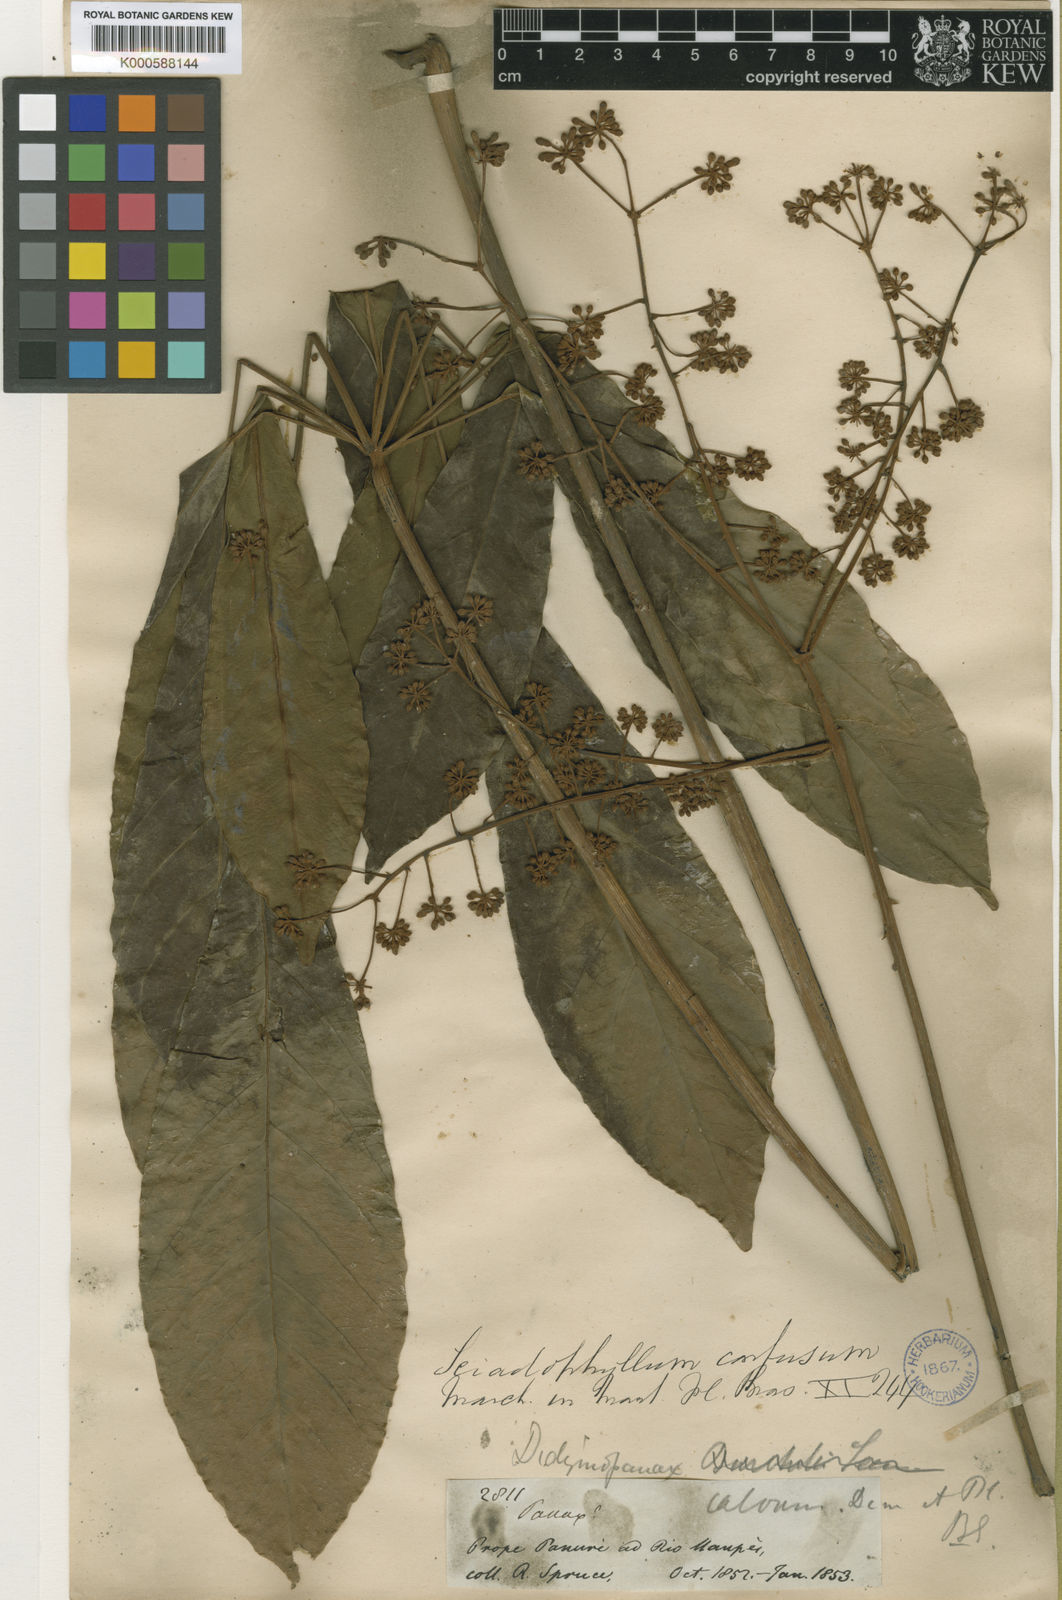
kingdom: Plantae
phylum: Tracheophyta
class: Magnoliopsida
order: Apiales
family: Araliaceae
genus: Didymopanax
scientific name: Didymopanax confusus
